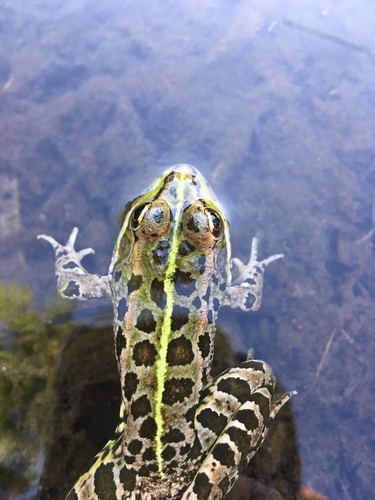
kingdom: Animalia
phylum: Chordata
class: Amphibia
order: Anura
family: Ranidae
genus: Pelophylax
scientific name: Pelophylax perezi
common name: Perez's frog
